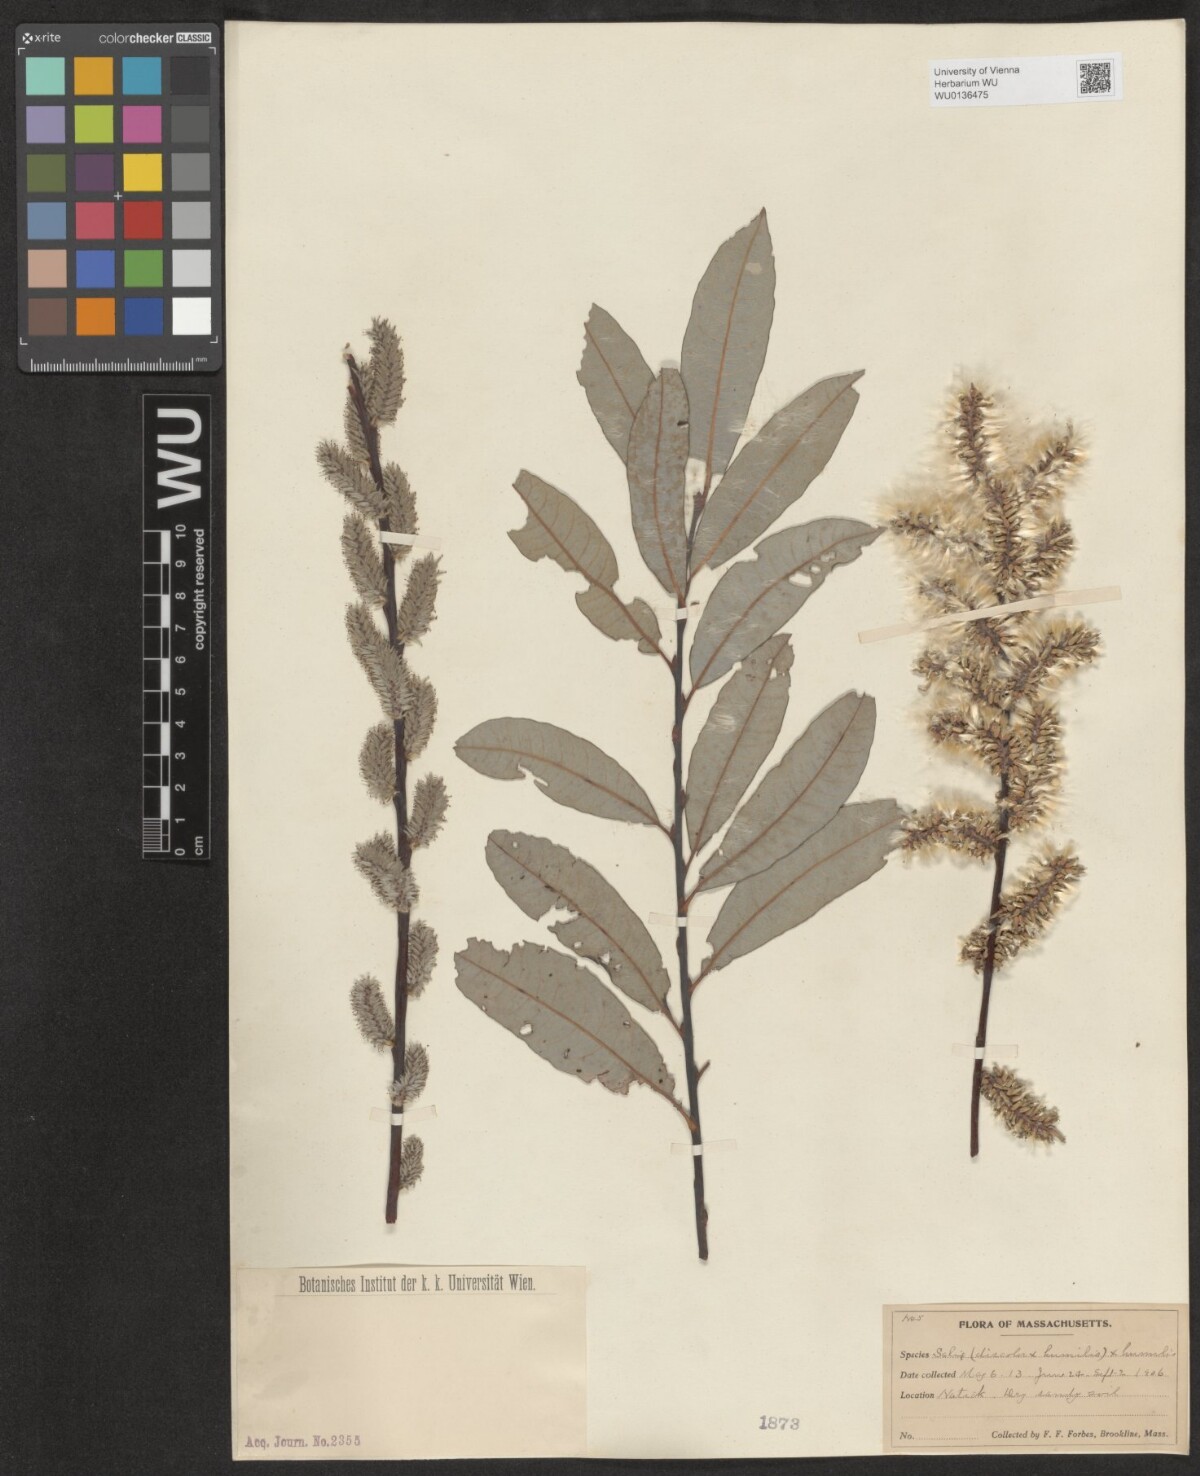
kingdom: Plantae
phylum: Tracheophyta
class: Magnoliopsida
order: Malpighiales
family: Salicaceae
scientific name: Salicaceae
